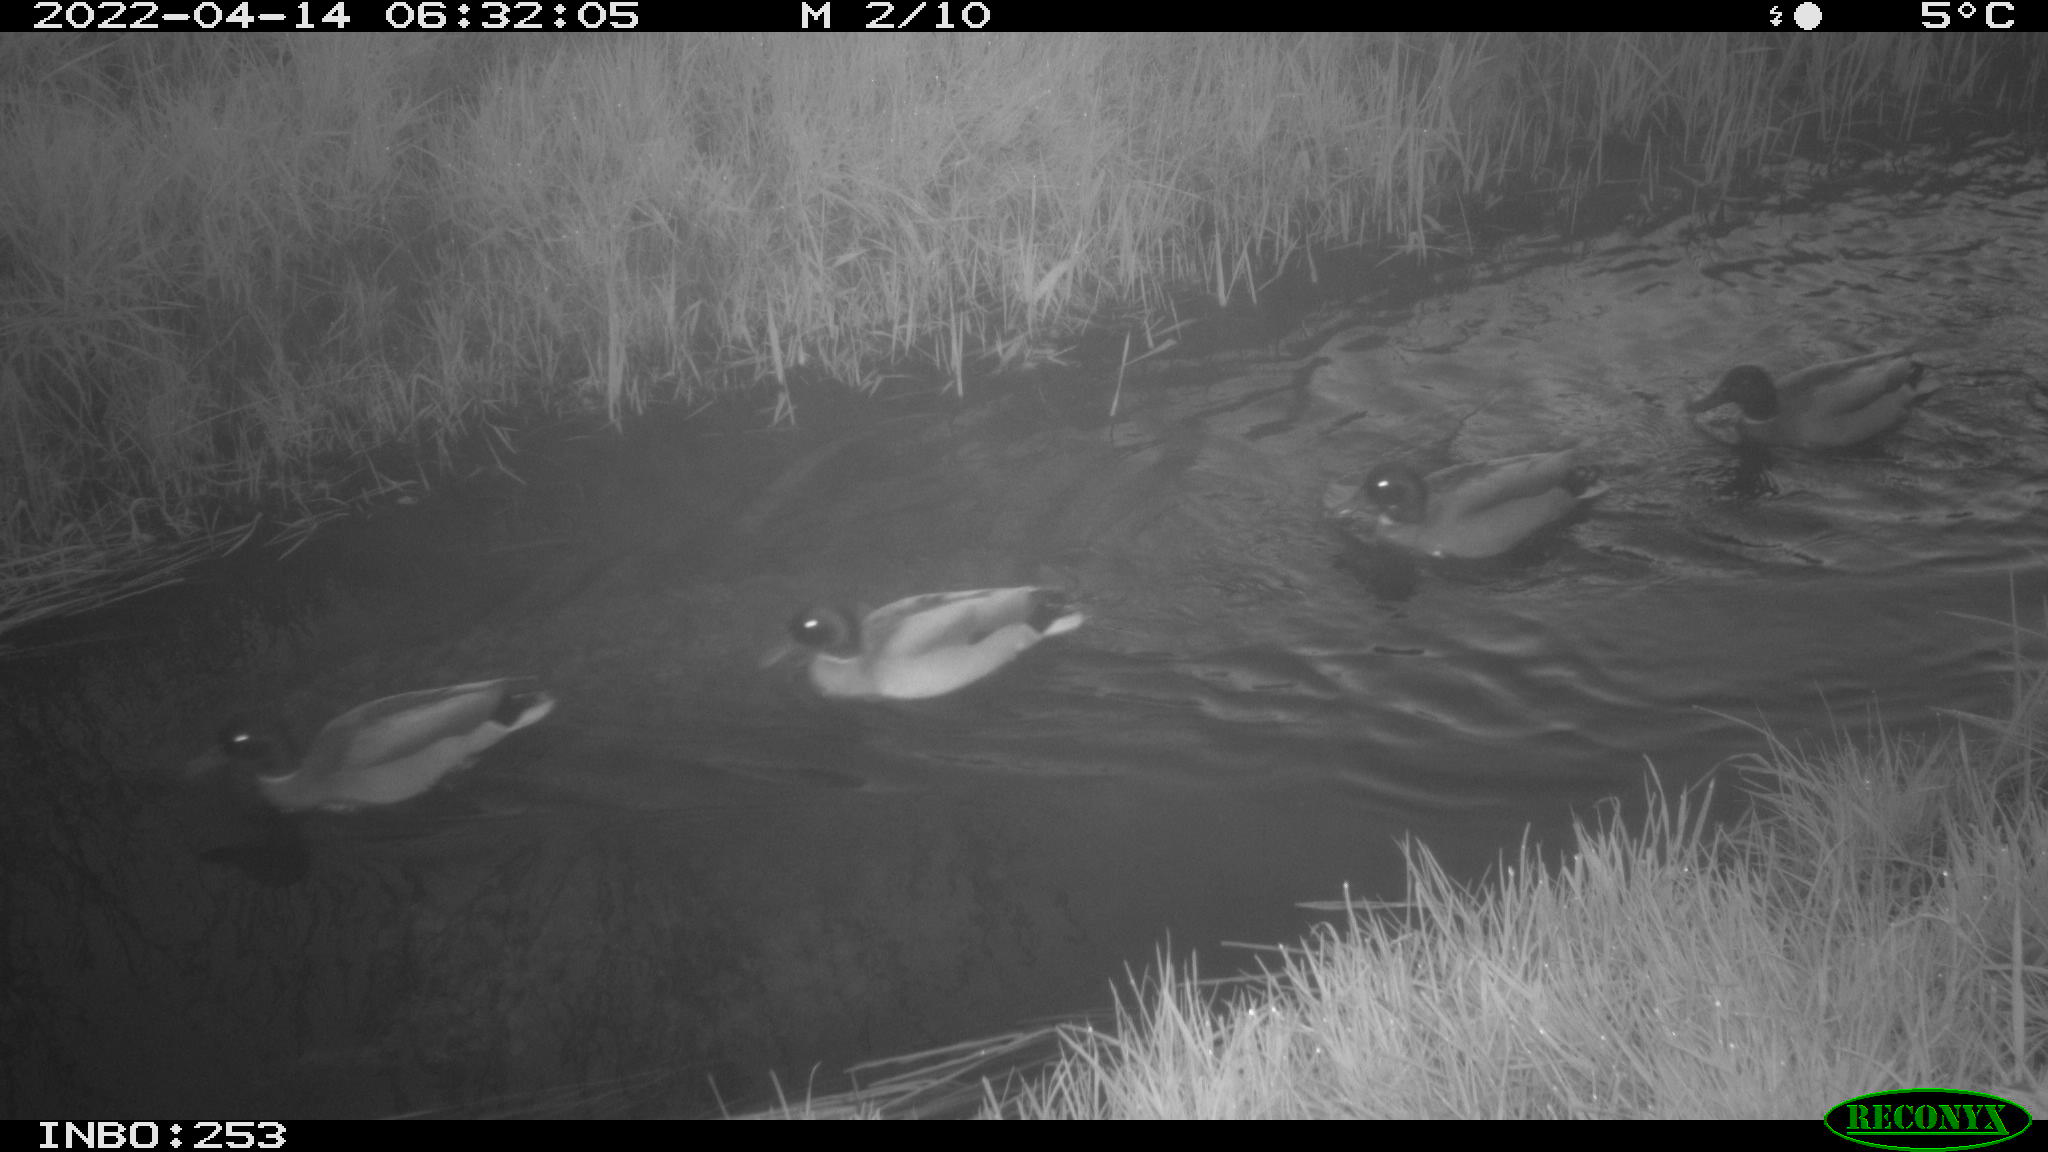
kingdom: Animalia
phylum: Chordata
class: Aves
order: Anseriformes
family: Anatidae
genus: Anas
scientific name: Anas platyrhynchos
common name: Mallard
